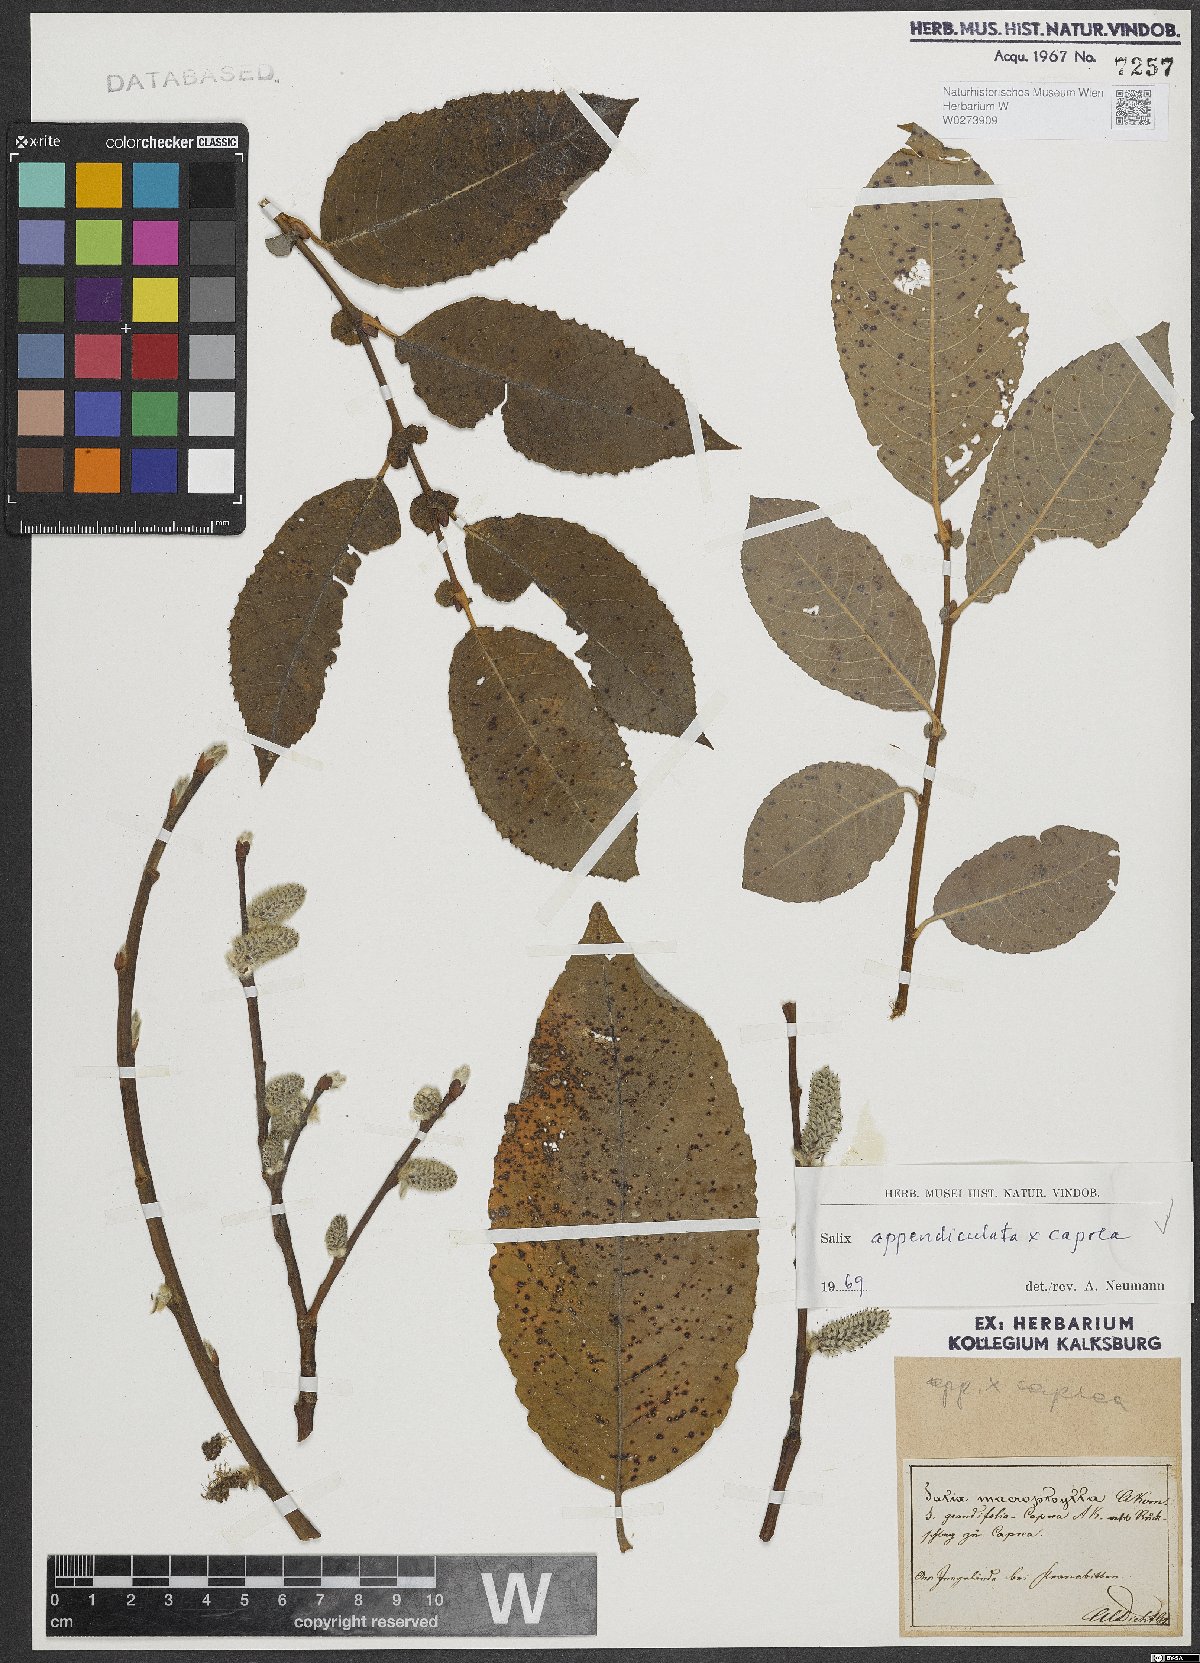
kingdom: Plantae
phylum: Tracheophyta
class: Magnoliopsida
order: Malpighiales
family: Salicaceae
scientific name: Salicaceae
